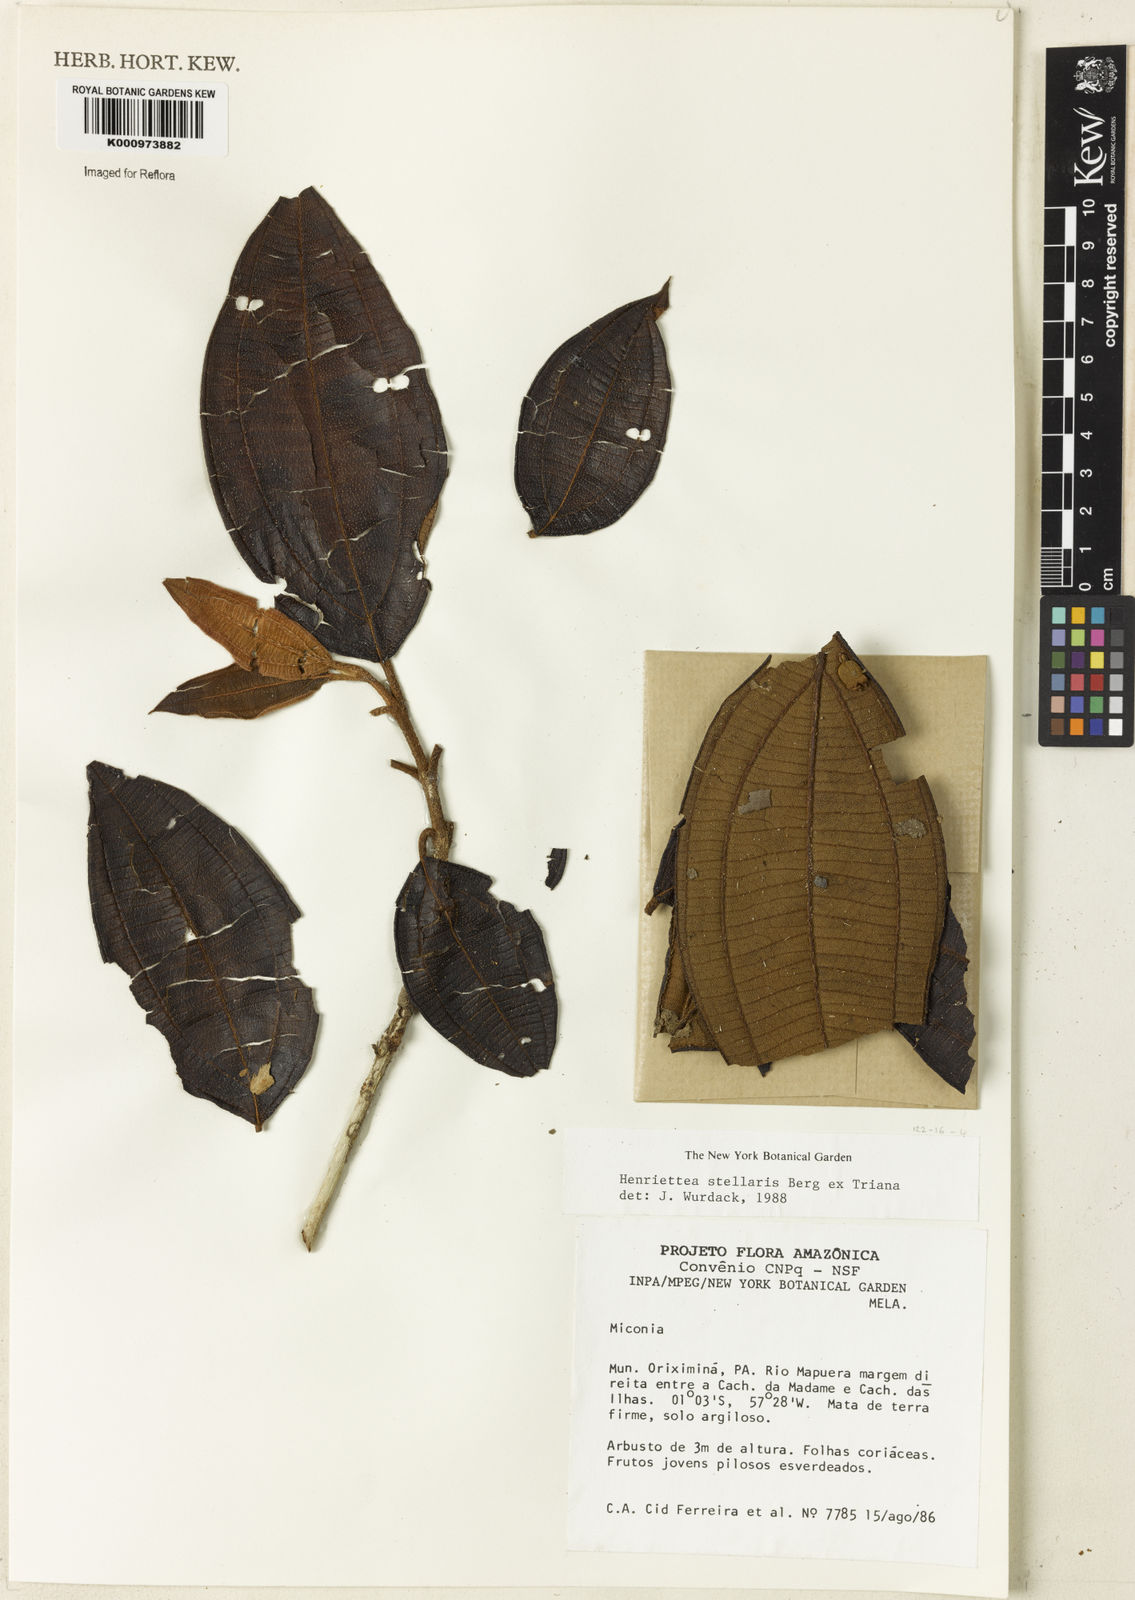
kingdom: Plantae
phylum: Tracheophyta
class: Magnoliopsida
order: Myrtales
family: Melastomataceae
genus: Henriettea
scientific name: Henriettea stellaris
